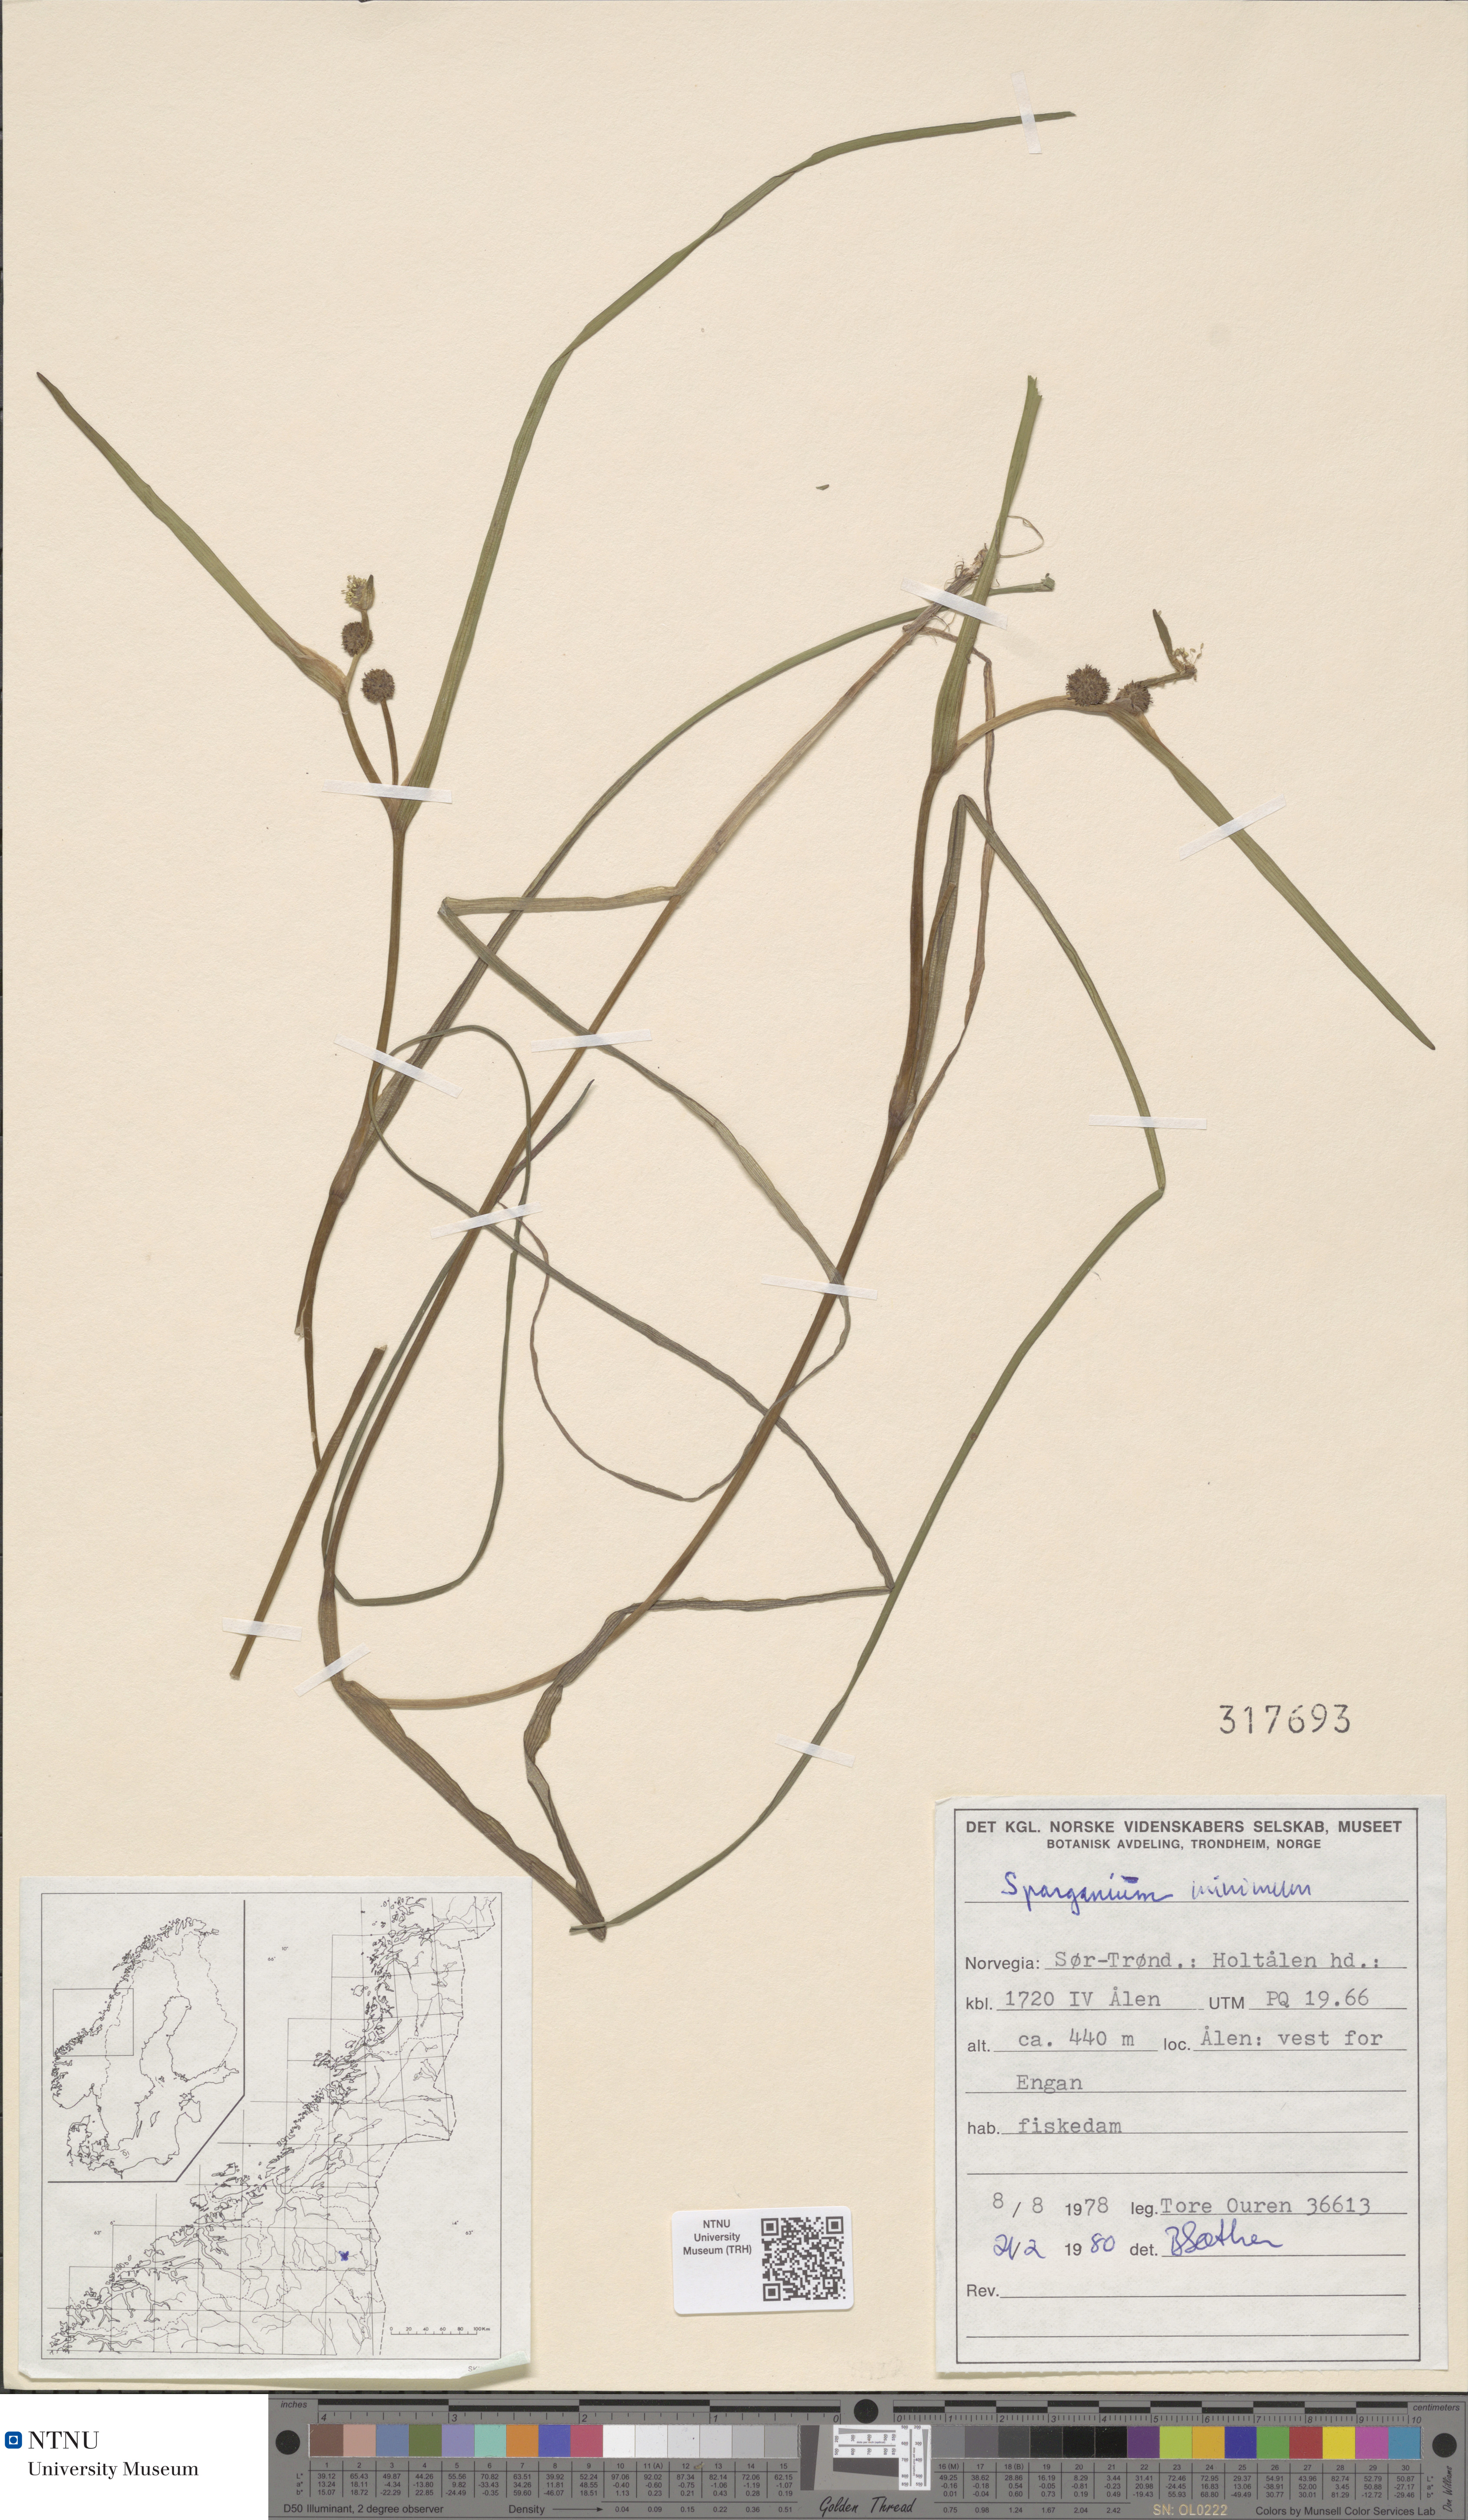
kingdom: Plantae
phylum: Tracheophyta
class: Liliopsida
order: Poales
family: Typhaceae
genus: Sparganium
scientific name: Sparganium natans
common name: Least bur-reed
